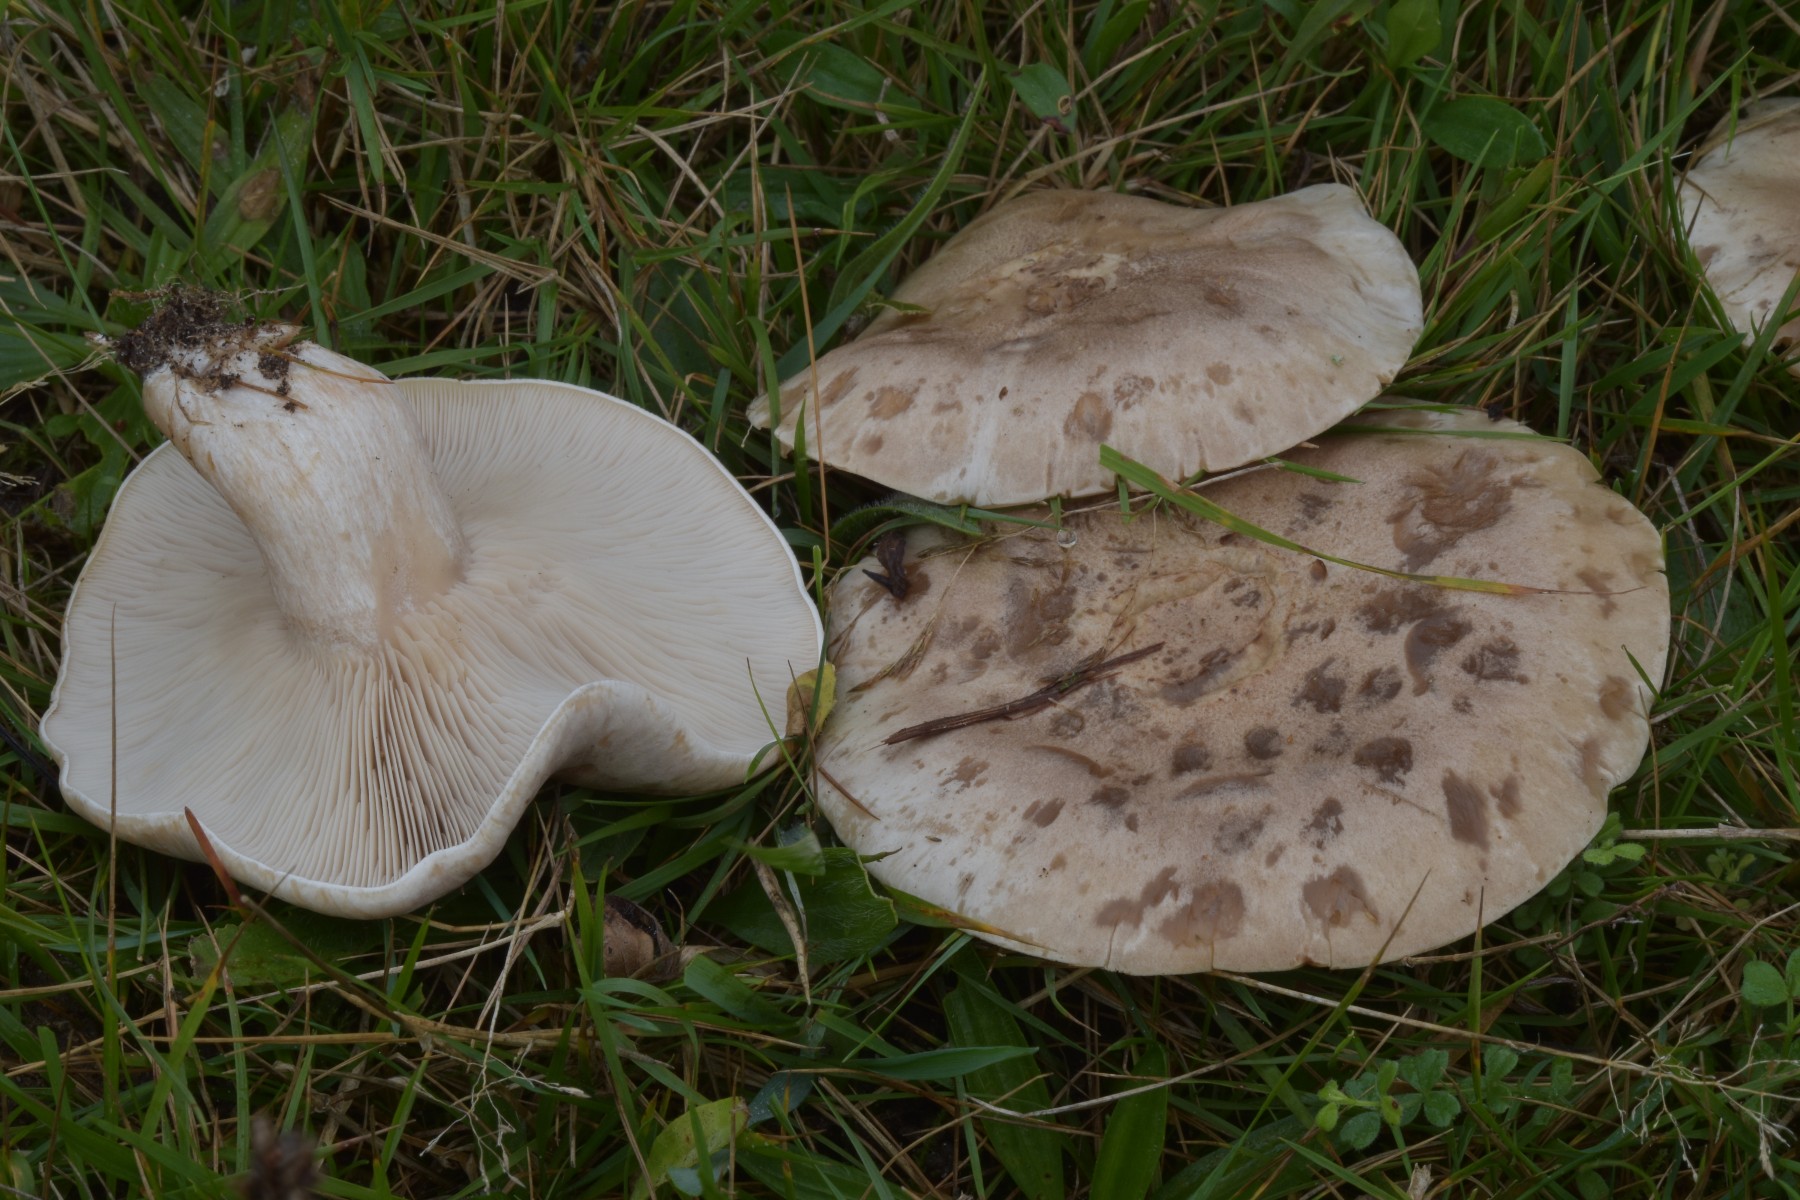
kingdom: Fungi
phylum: Basidiomycota
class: Agaricomycetes
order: Agaricales
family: Tricholomataceae
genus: Lepista
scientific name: Lepista panaeolus
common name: marmoreret hekseringshat
